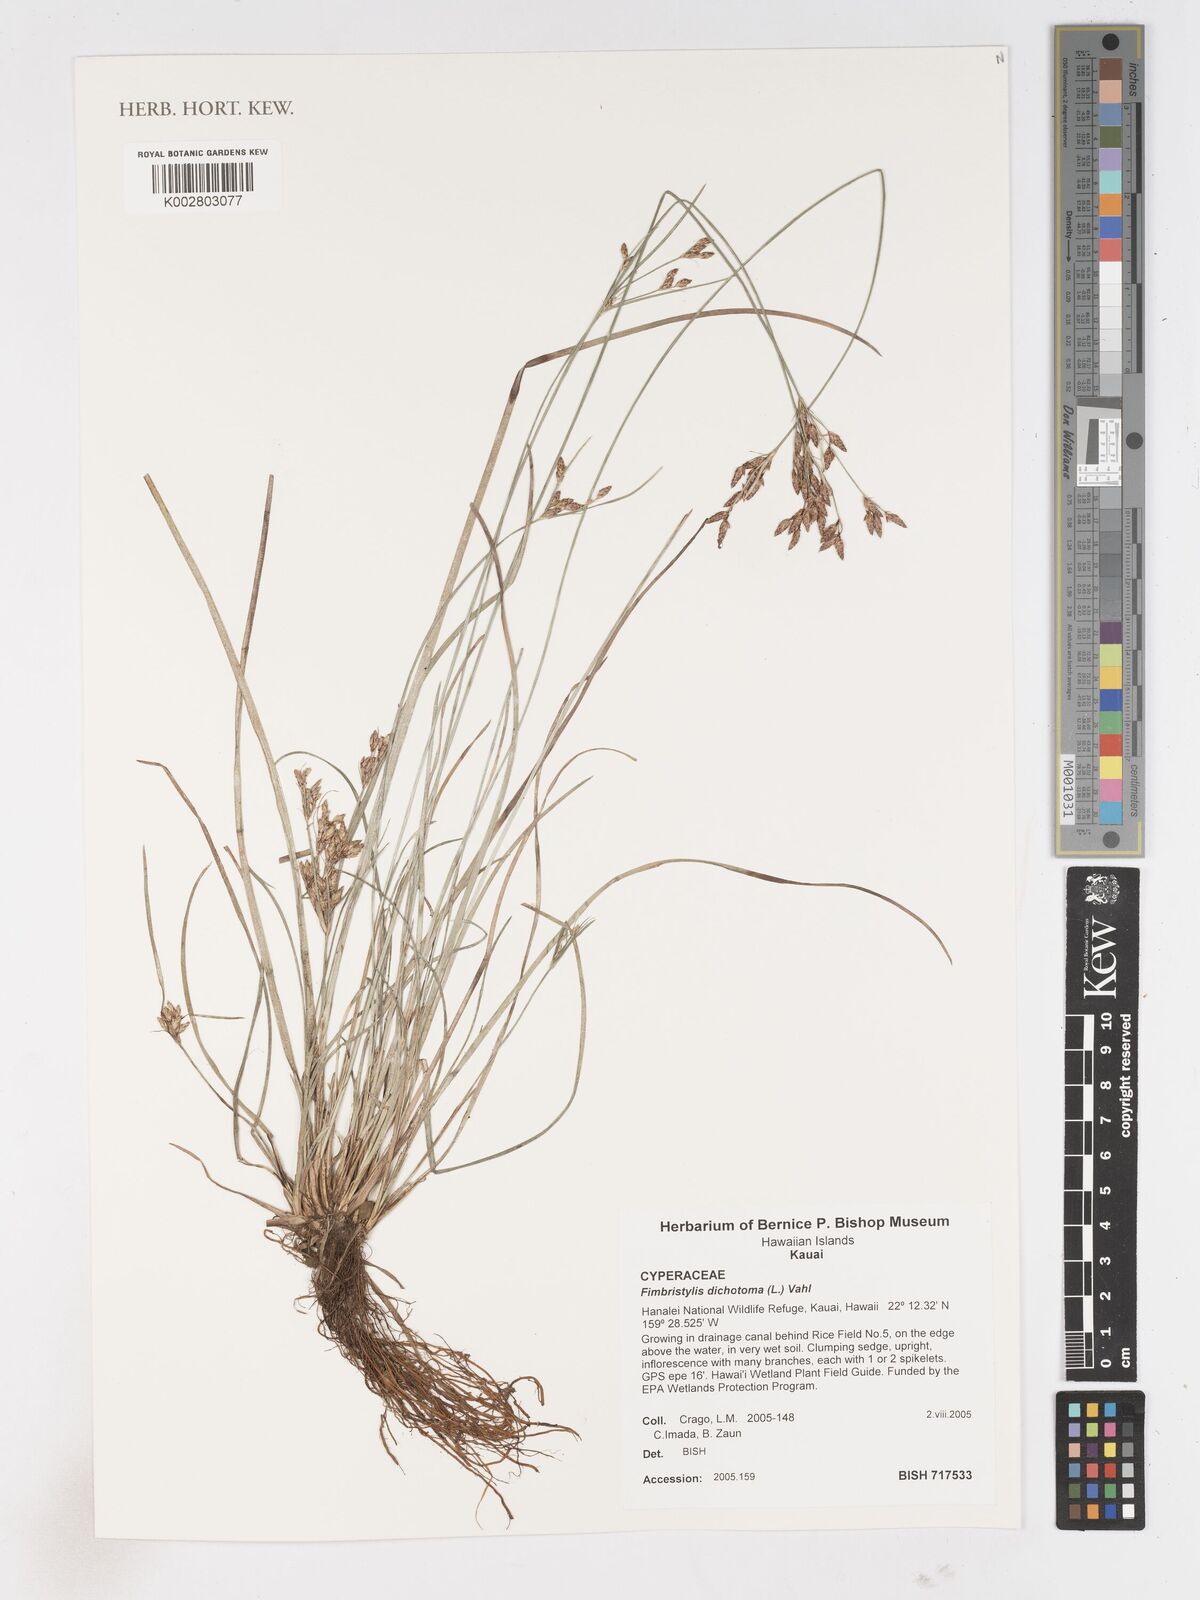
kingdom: Plantae
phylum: Tracheophyta
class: Liliopsida
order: Poales
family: Cyperaceae
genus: Fimbristylis
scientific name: Fimbristylis dichotoma
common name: Forked fimbry
